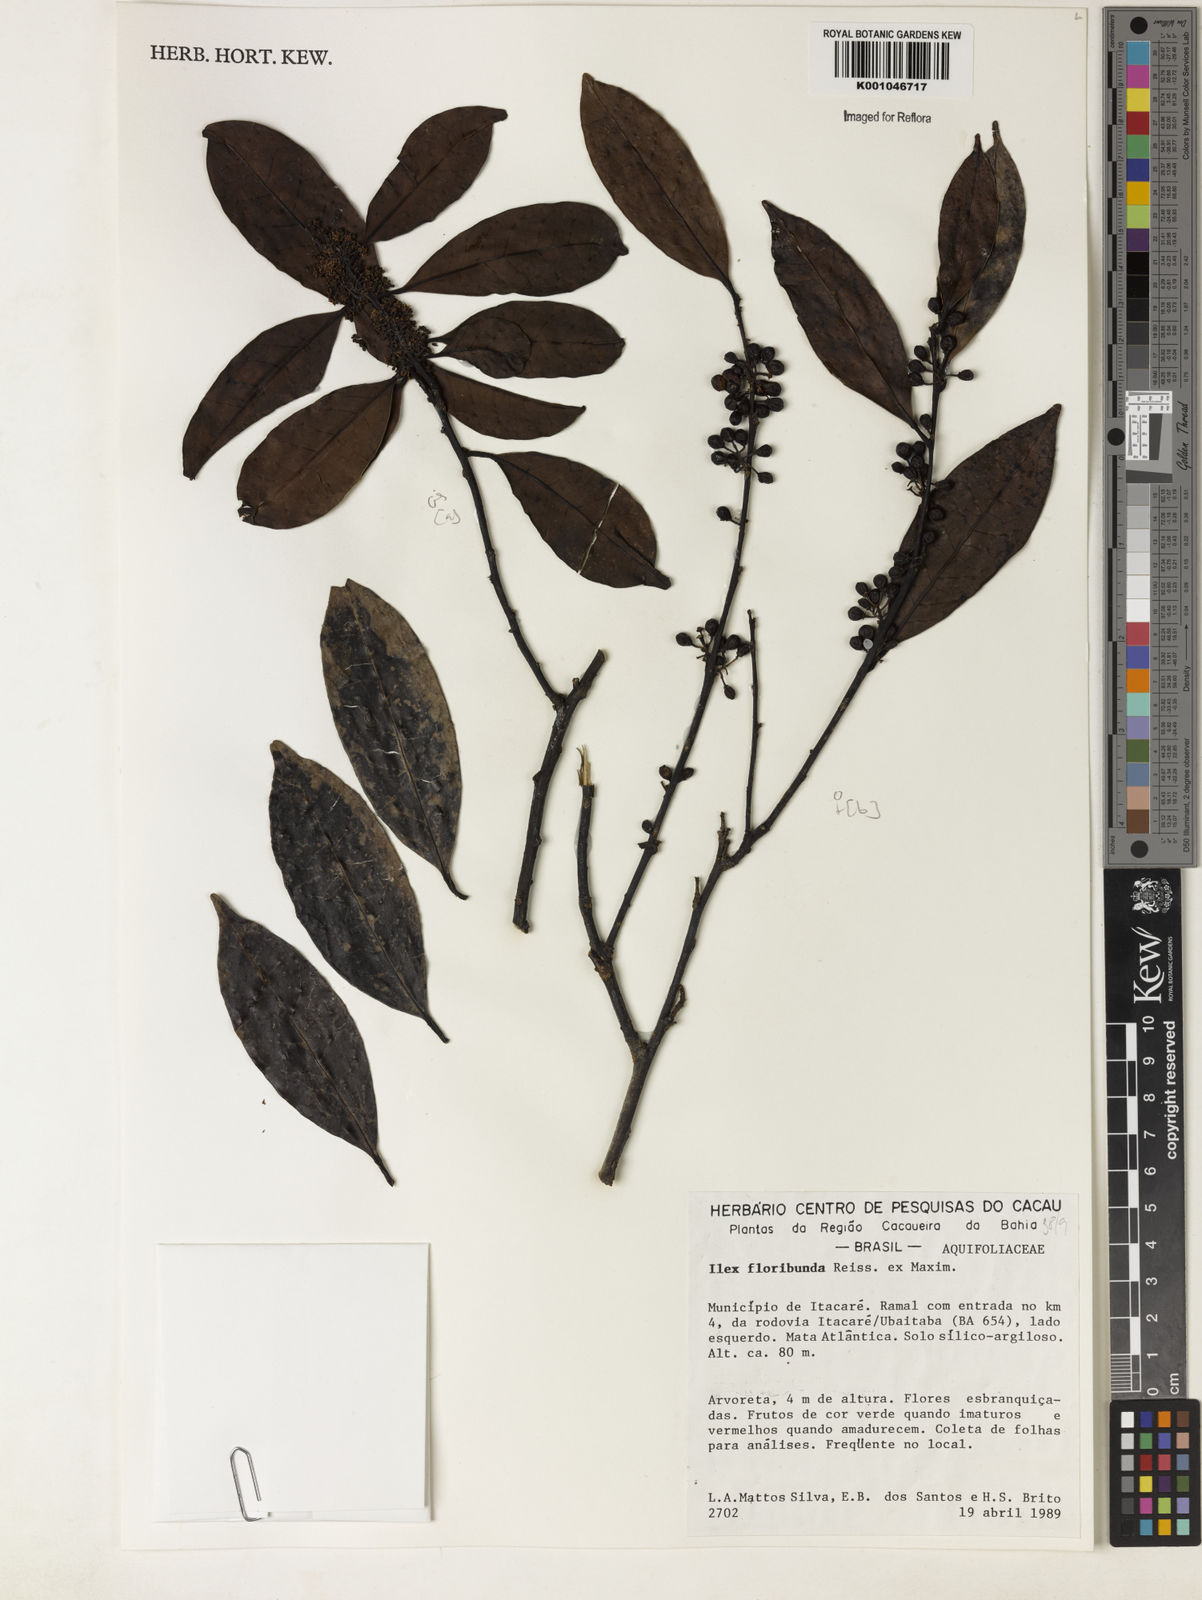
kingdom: Plantae
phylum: Tracheophyta
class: Magnoliopsida
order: Aquifoliales
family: Aquifoliaceae
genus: Ilex
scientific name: Ilex floribunda
